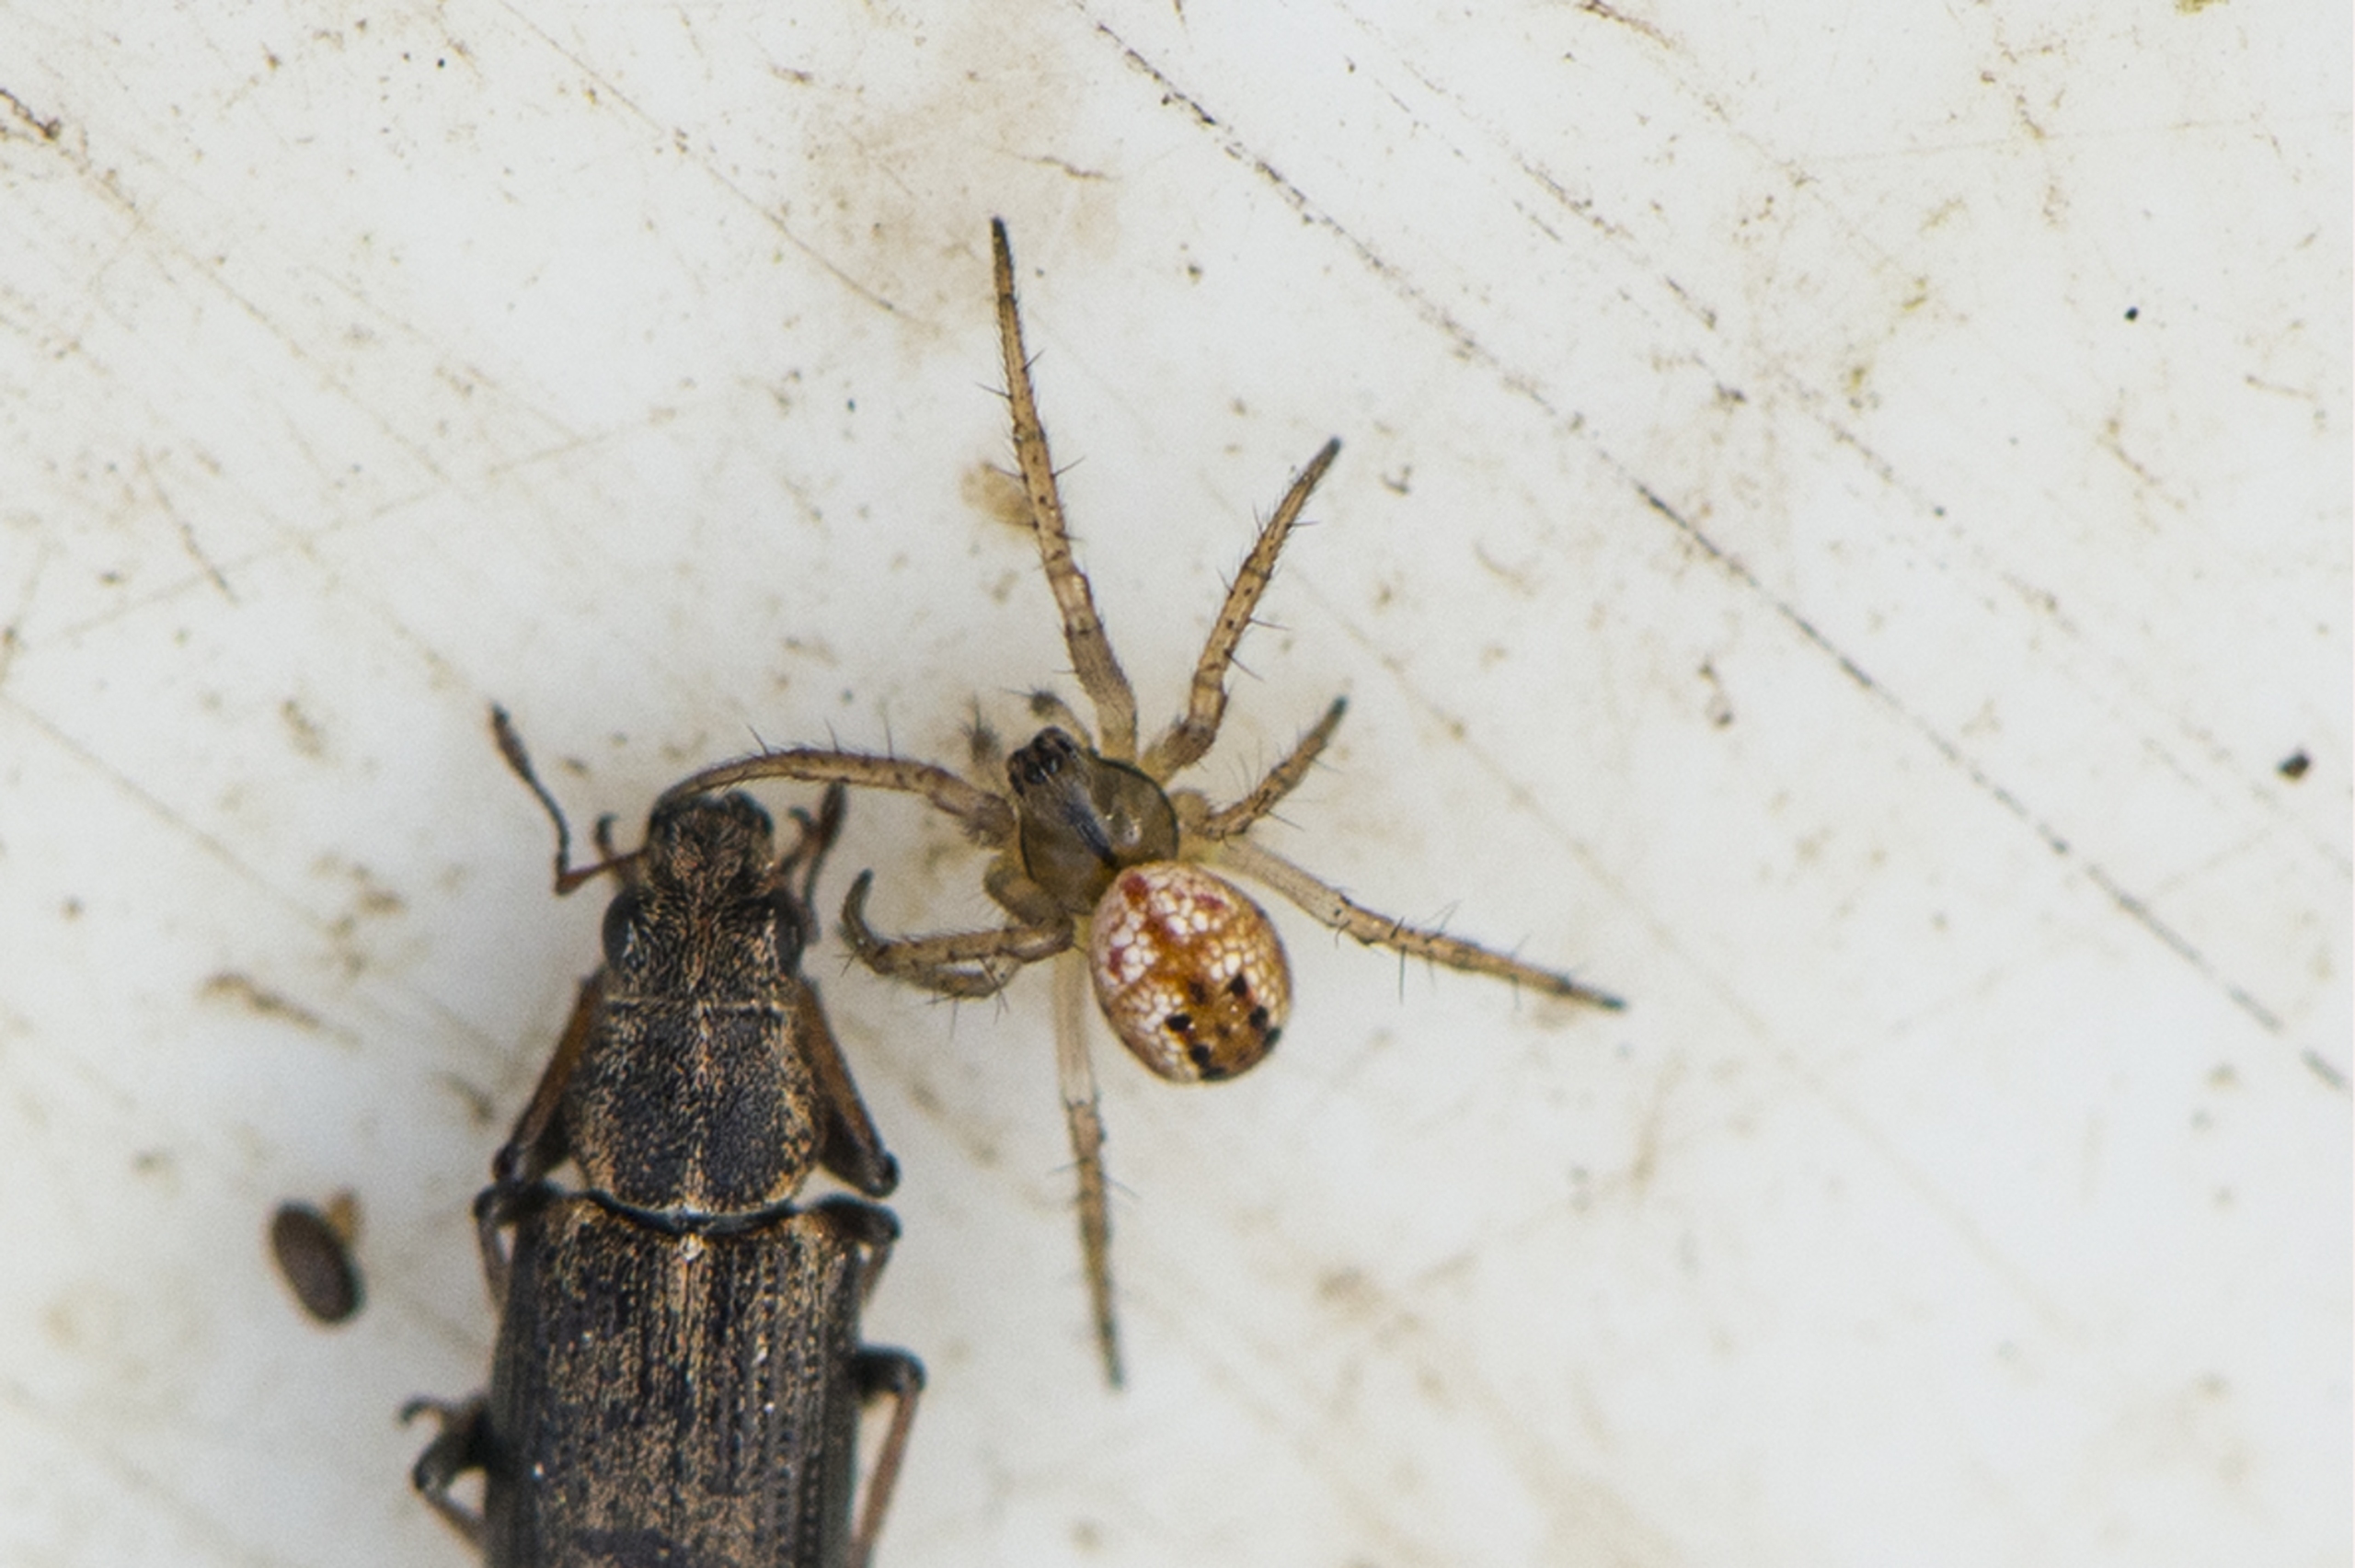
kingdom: Animalia
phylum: Arthropoda
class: Arachnida
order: Araneae
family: Araneidae
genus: Mangora
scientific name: Mangora acalypha
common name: Sortstribet hedehjulspinder
